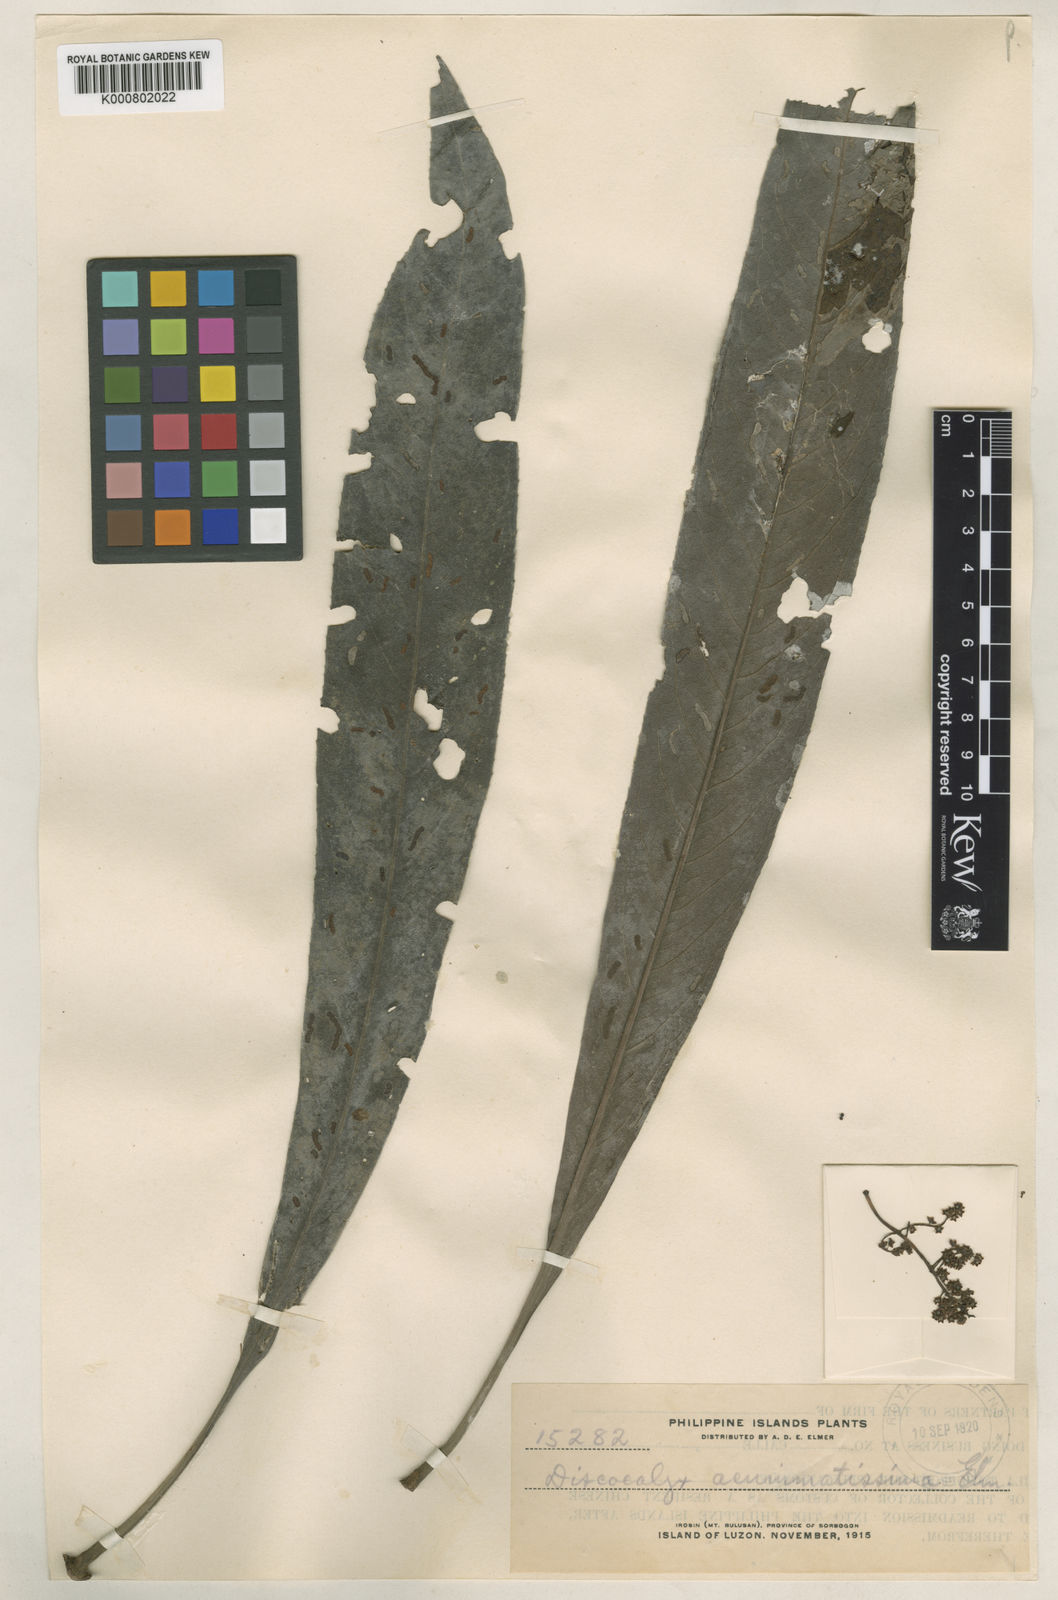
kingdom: Plantae
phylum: Tracheophyta
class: Magnoliopsida
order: Ericales
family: Primulaceae
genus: Discocalyx
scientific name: Discocalyx
